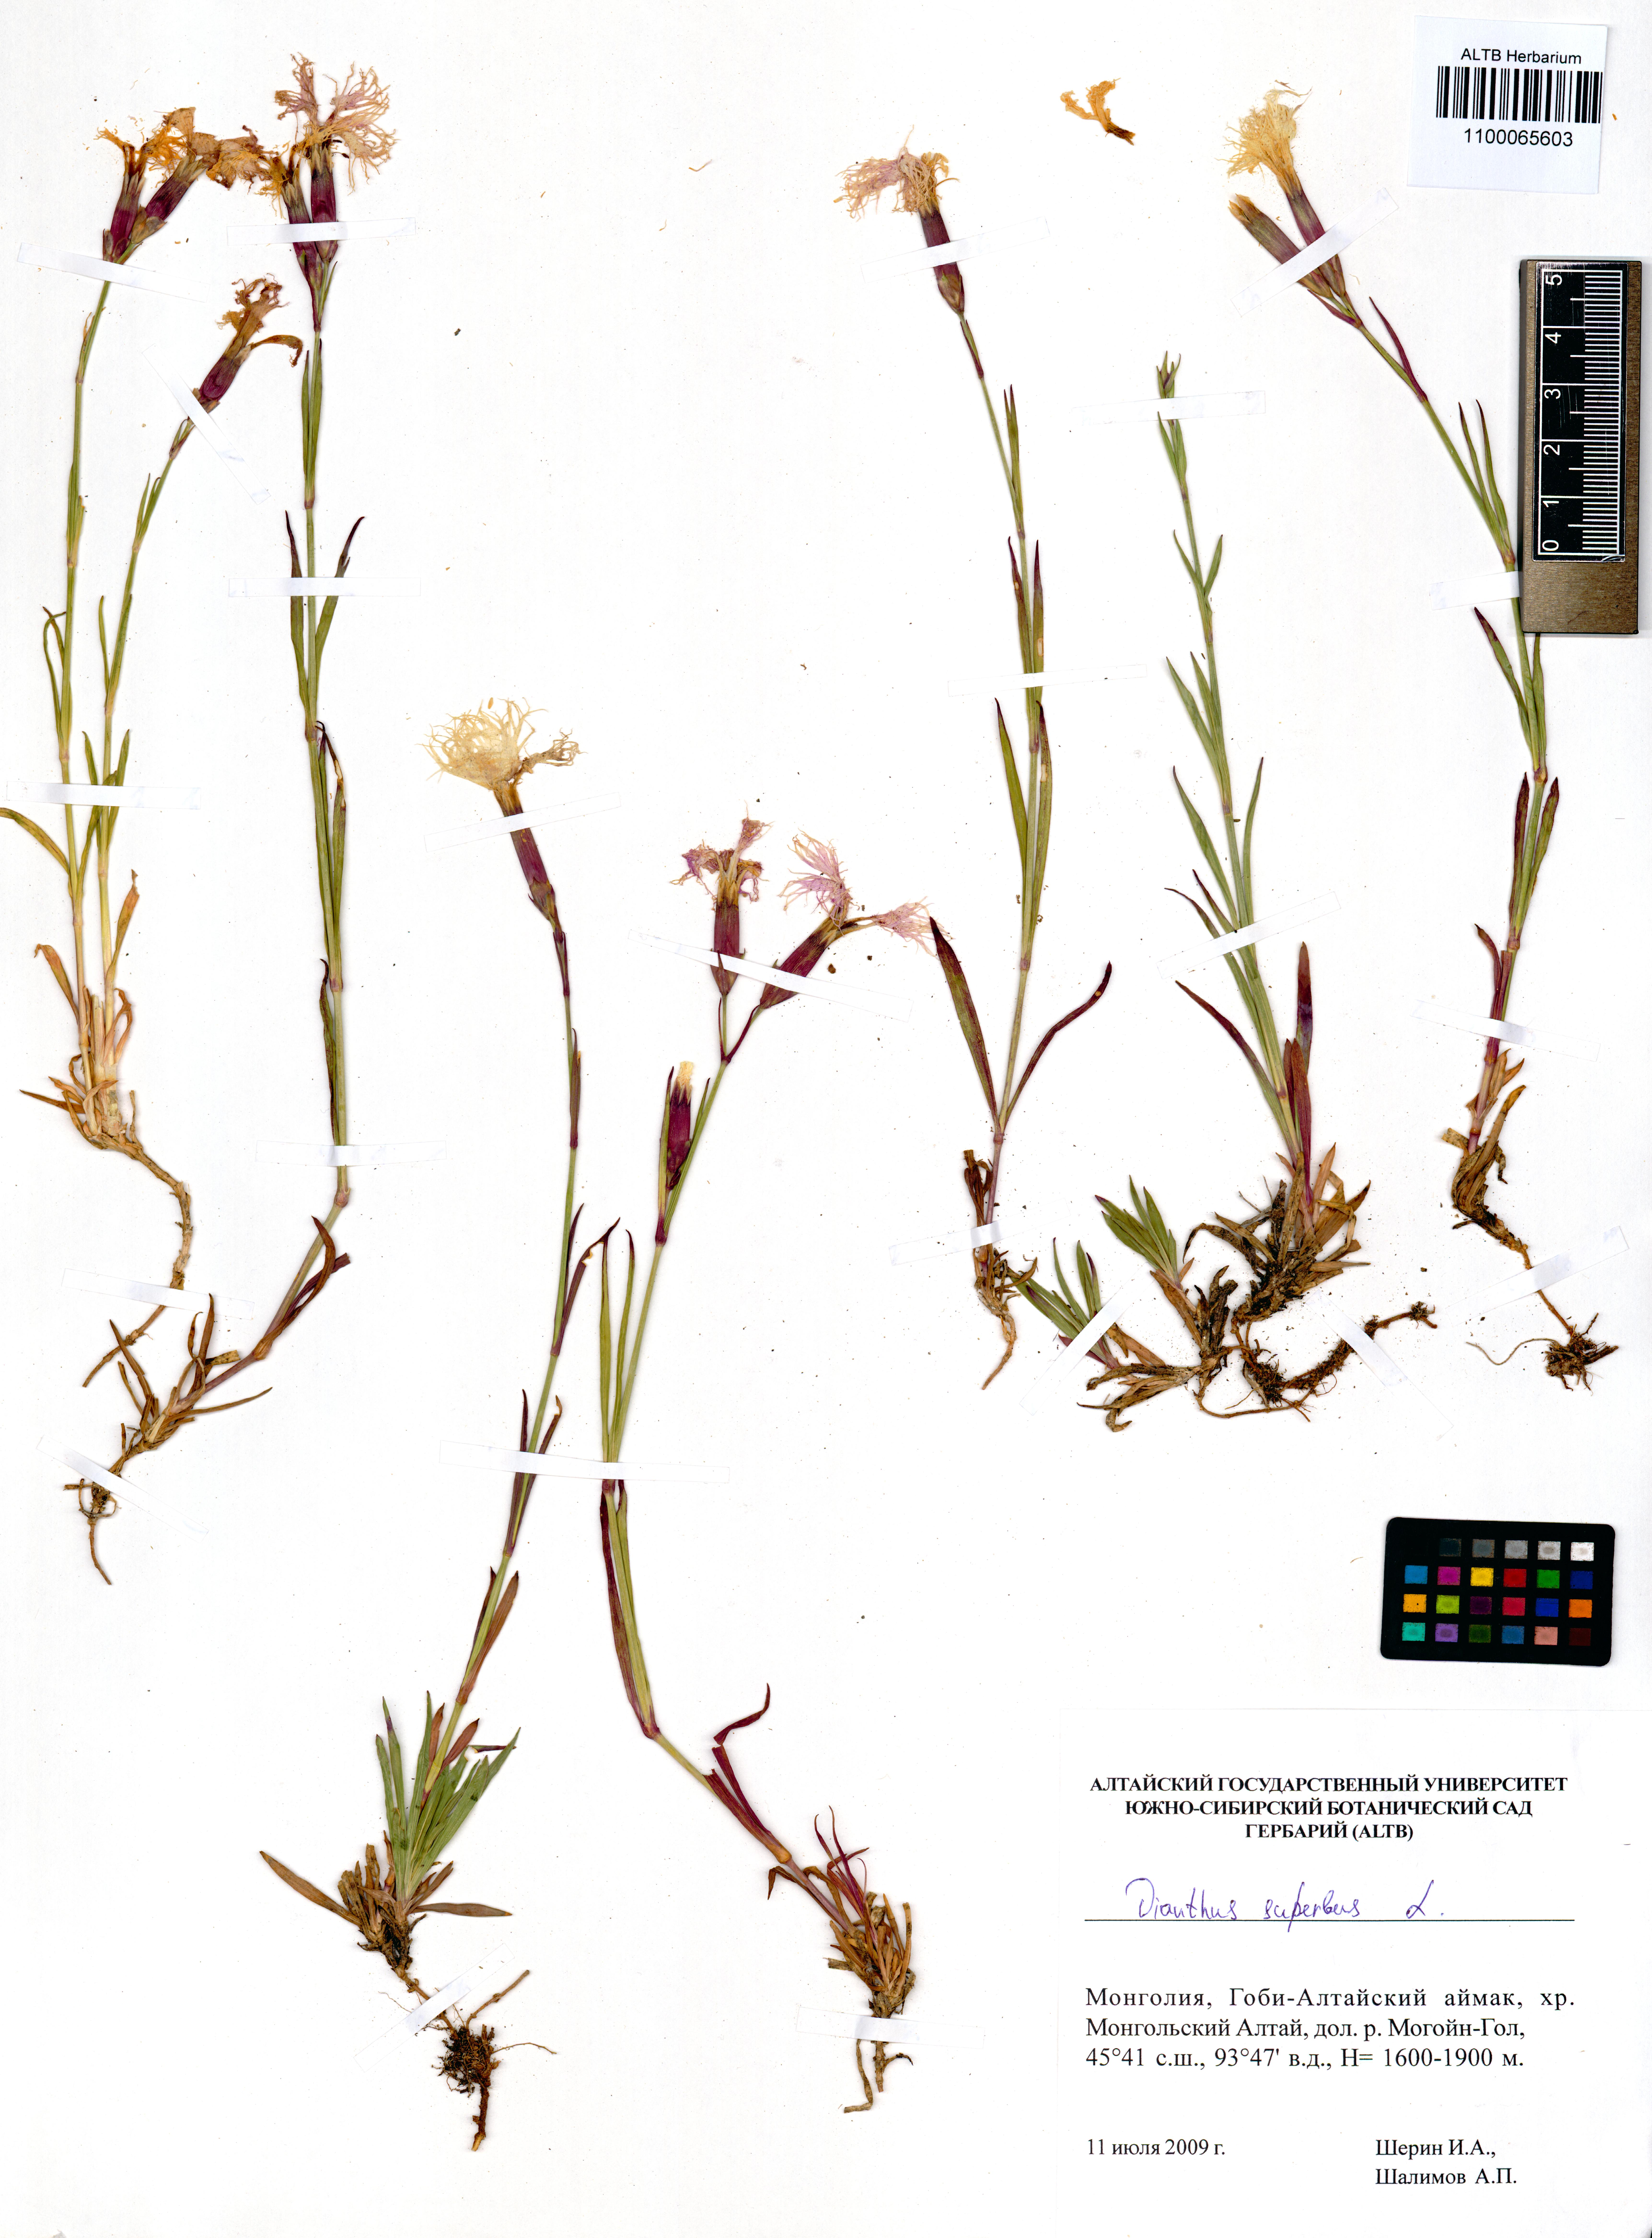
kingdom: Plantae
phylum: Tracheophyta
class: Magnoliopsida
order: Caryophyllales
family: Caryophyllaceae
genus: Dianthus
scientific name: Dianthus superbus
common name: Fringed pink
